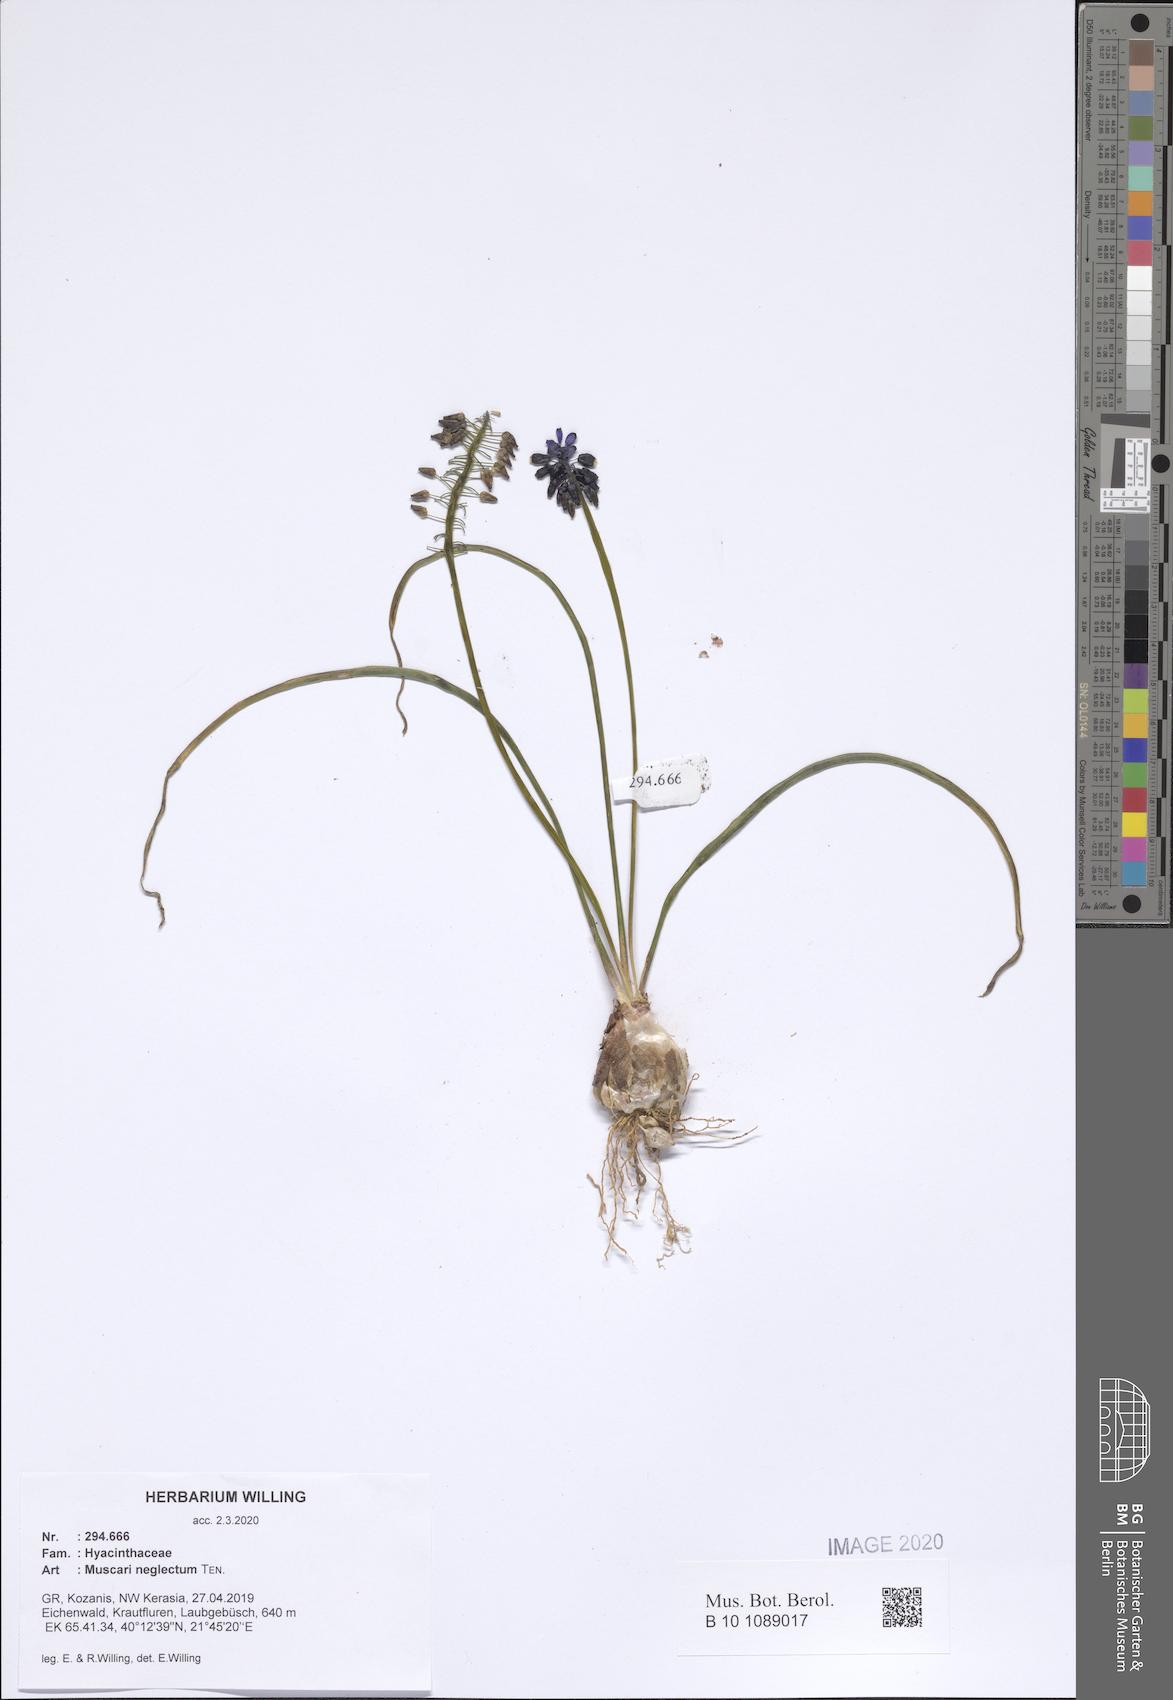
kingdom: Plantae
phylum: Tracheophyta
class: Liliopsida
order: Asparagales
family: Asparagaceae
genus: Muscari
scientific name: Muscari neglectum
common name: Grape-hyacinth
